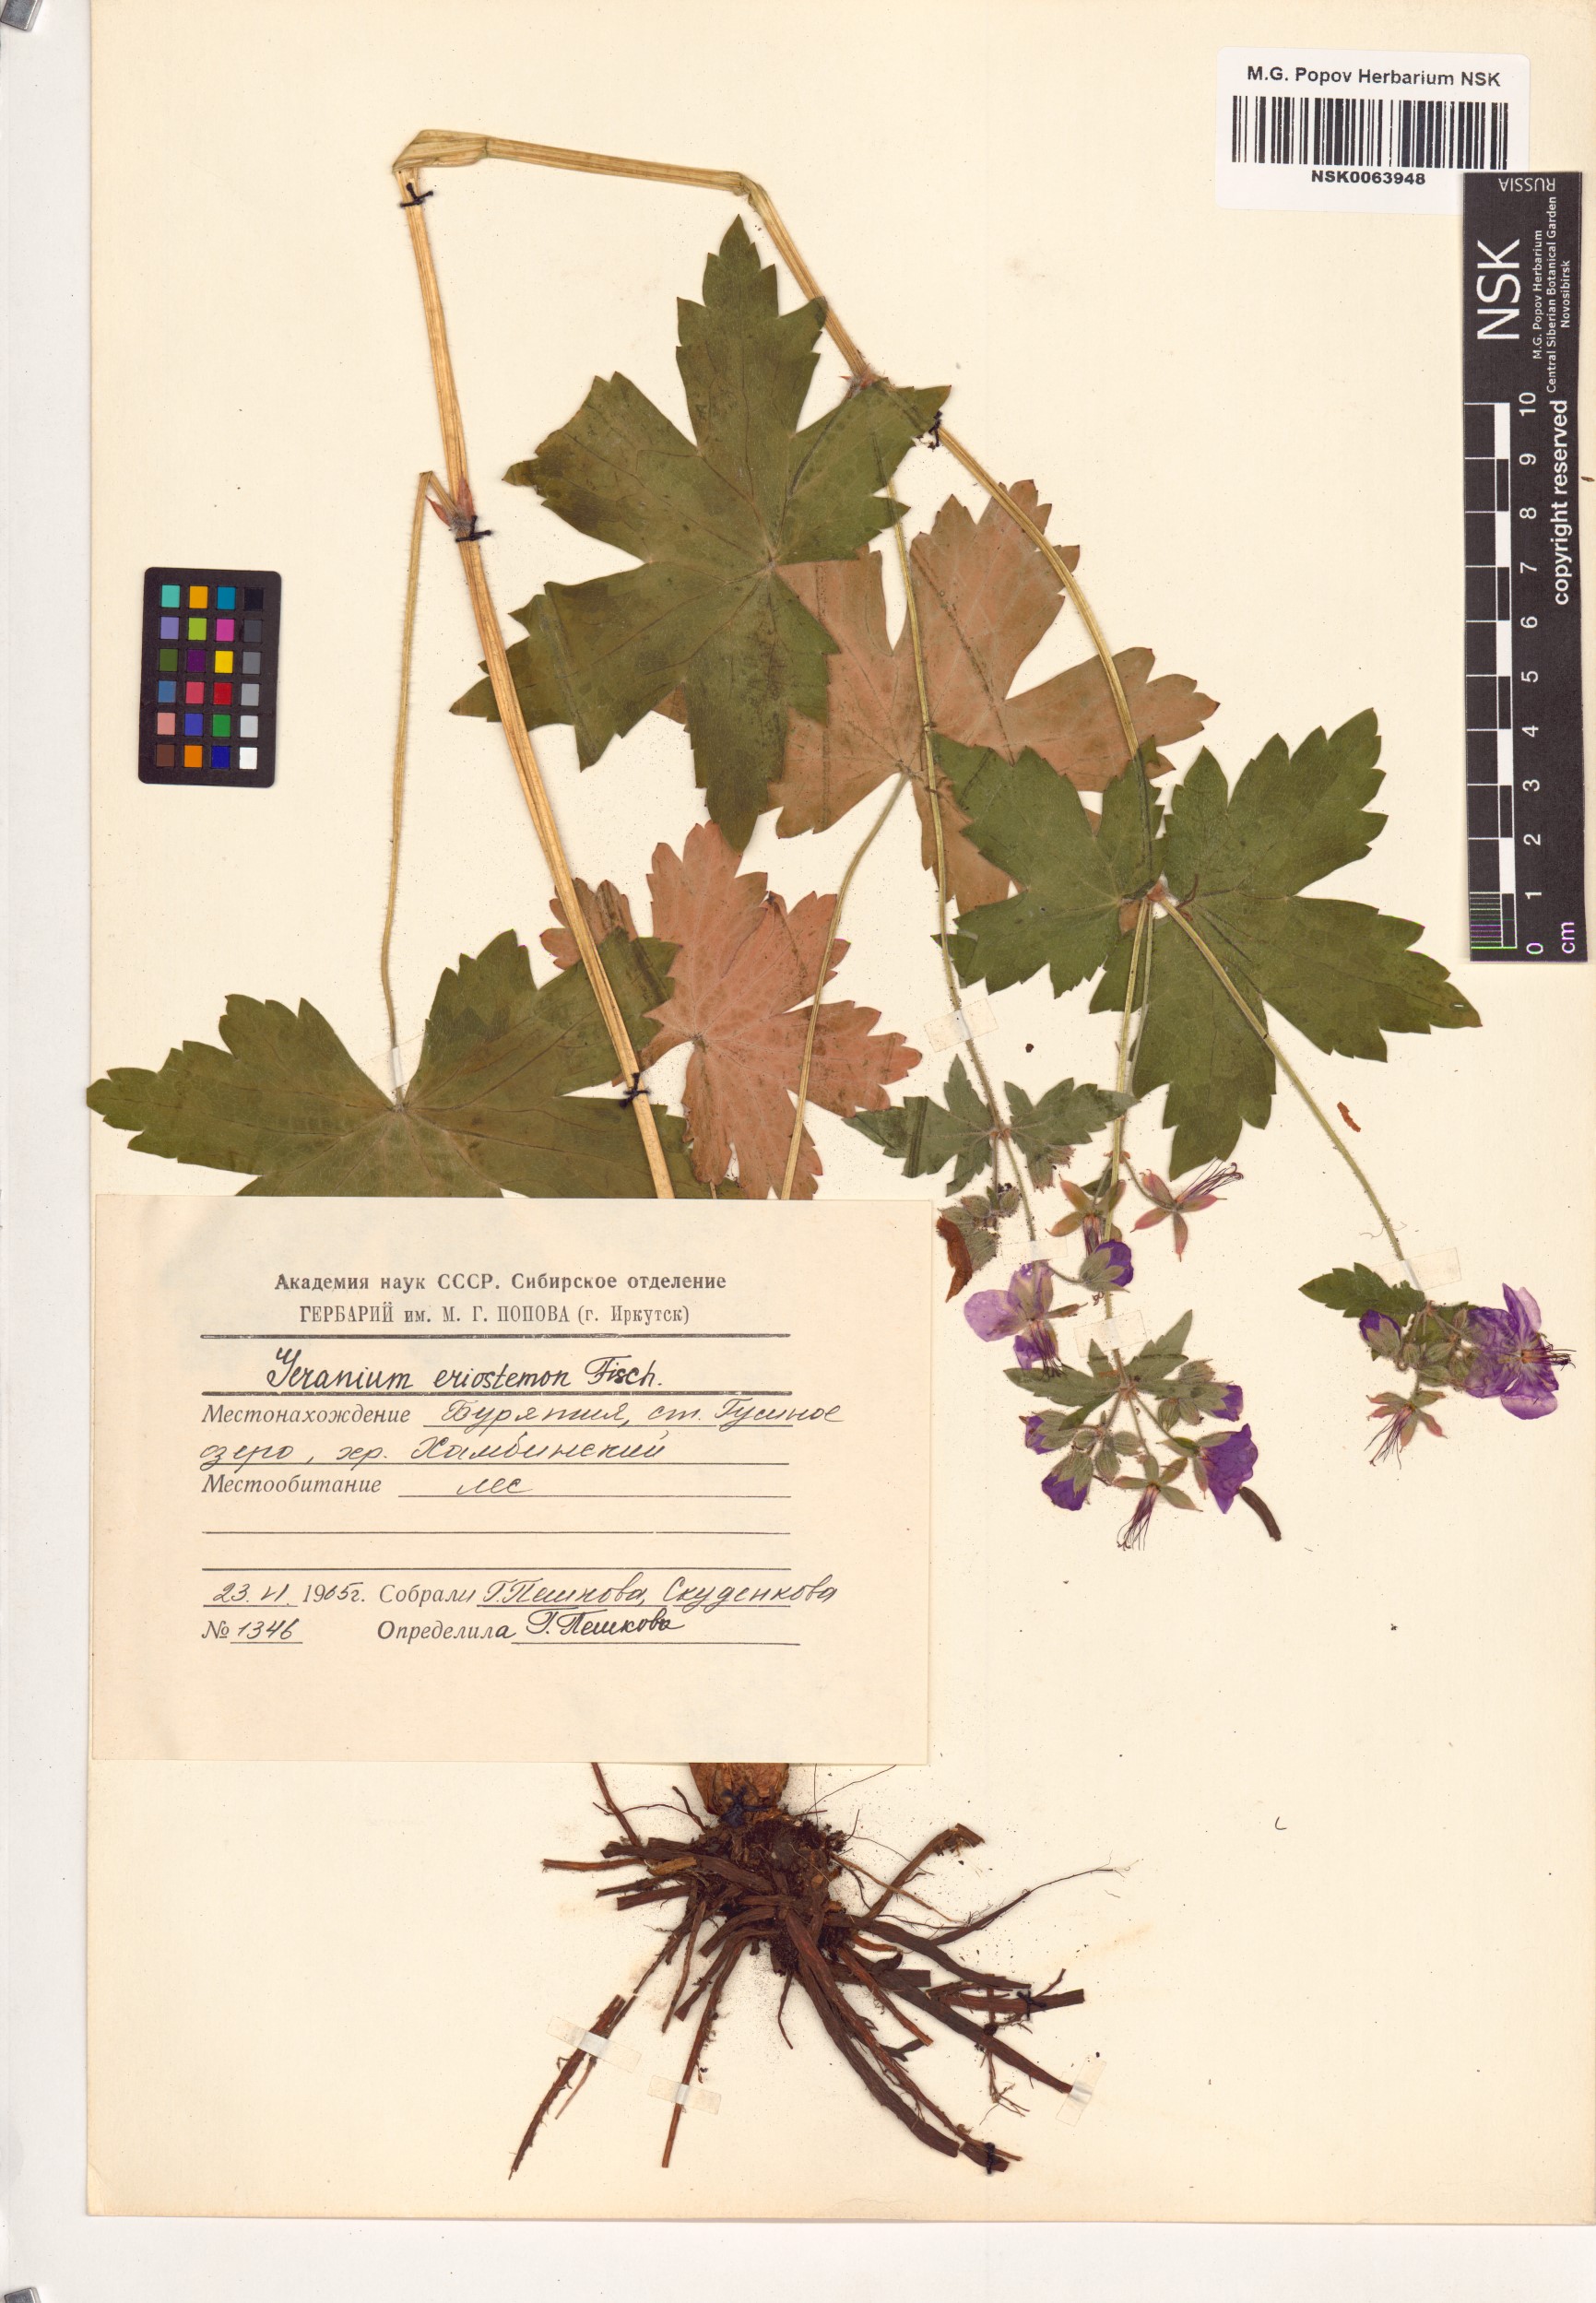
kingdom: Plantae
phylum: Tracheophyta
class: Magnoliopsida
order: Geraniales
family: Geraniaceae
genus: Geranium
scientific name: Geranium platyanthum
